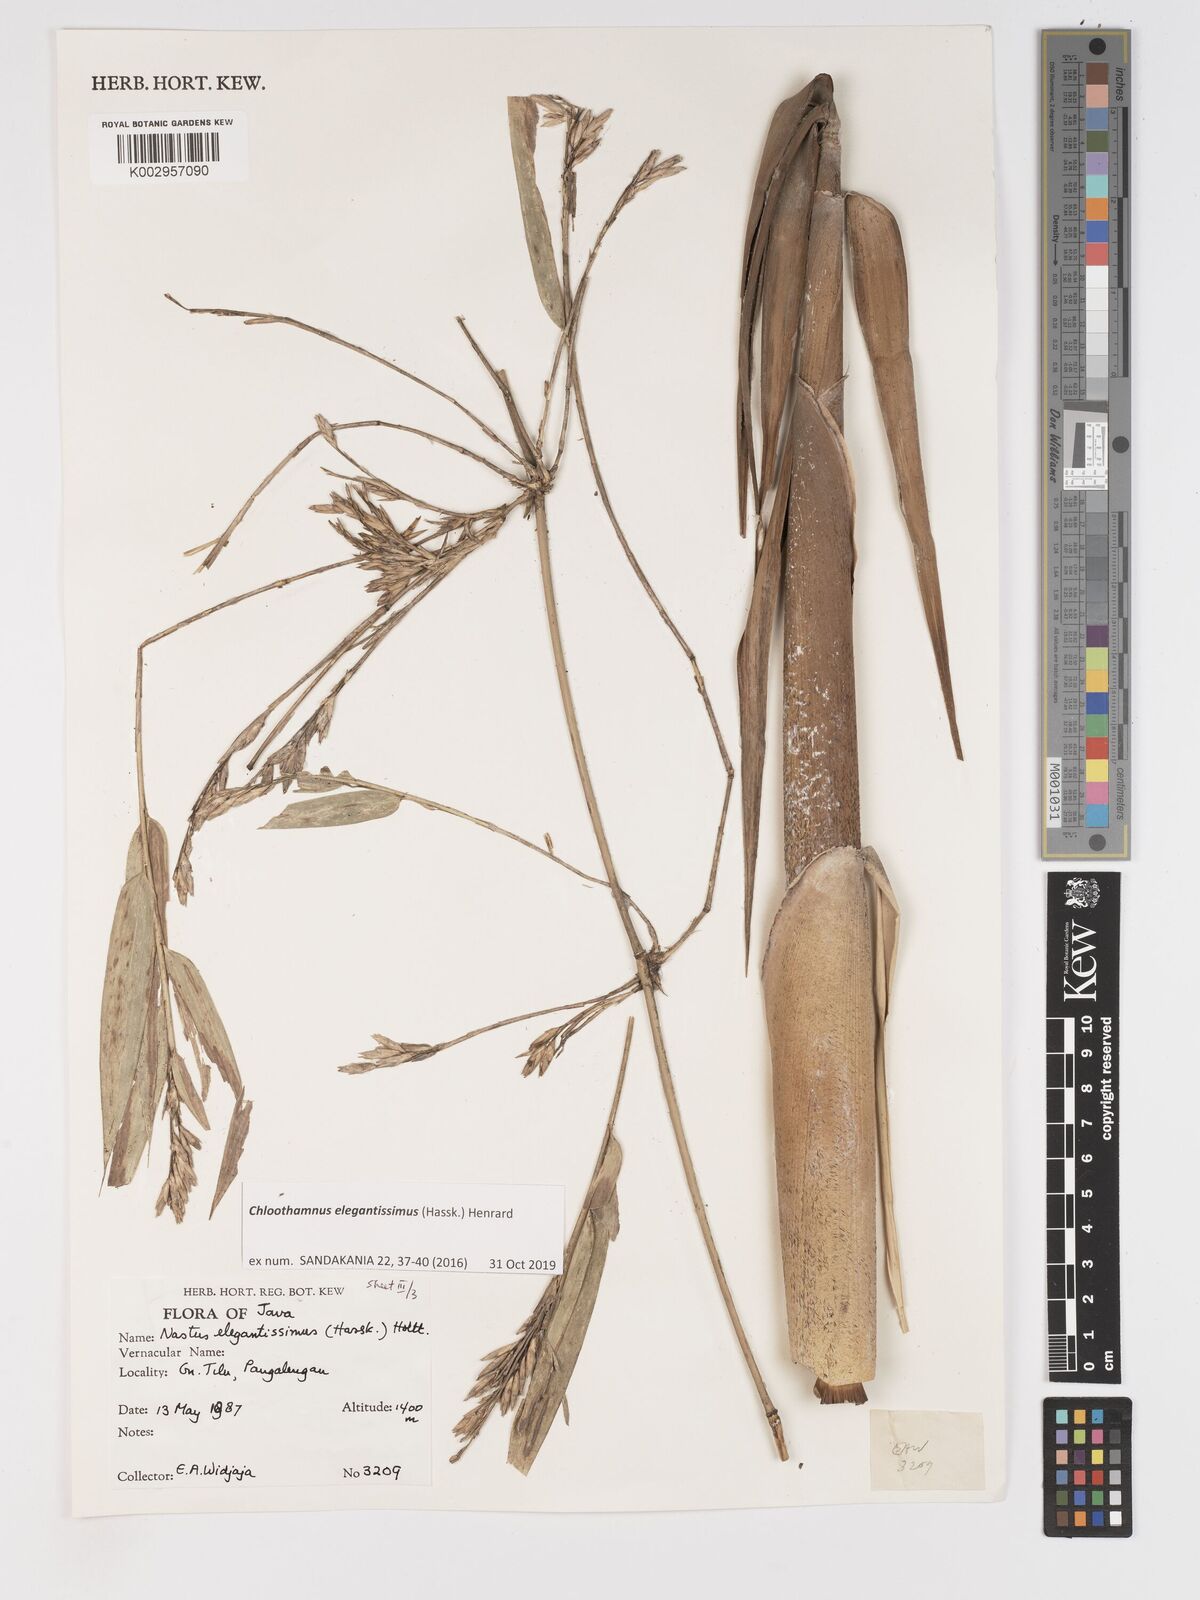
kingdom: Plantae
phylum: Tracheophyta
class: Liliopsida
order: Poales
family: Poaceae
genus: Chloothamnus
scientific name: Chloothamnus elegantissimus
